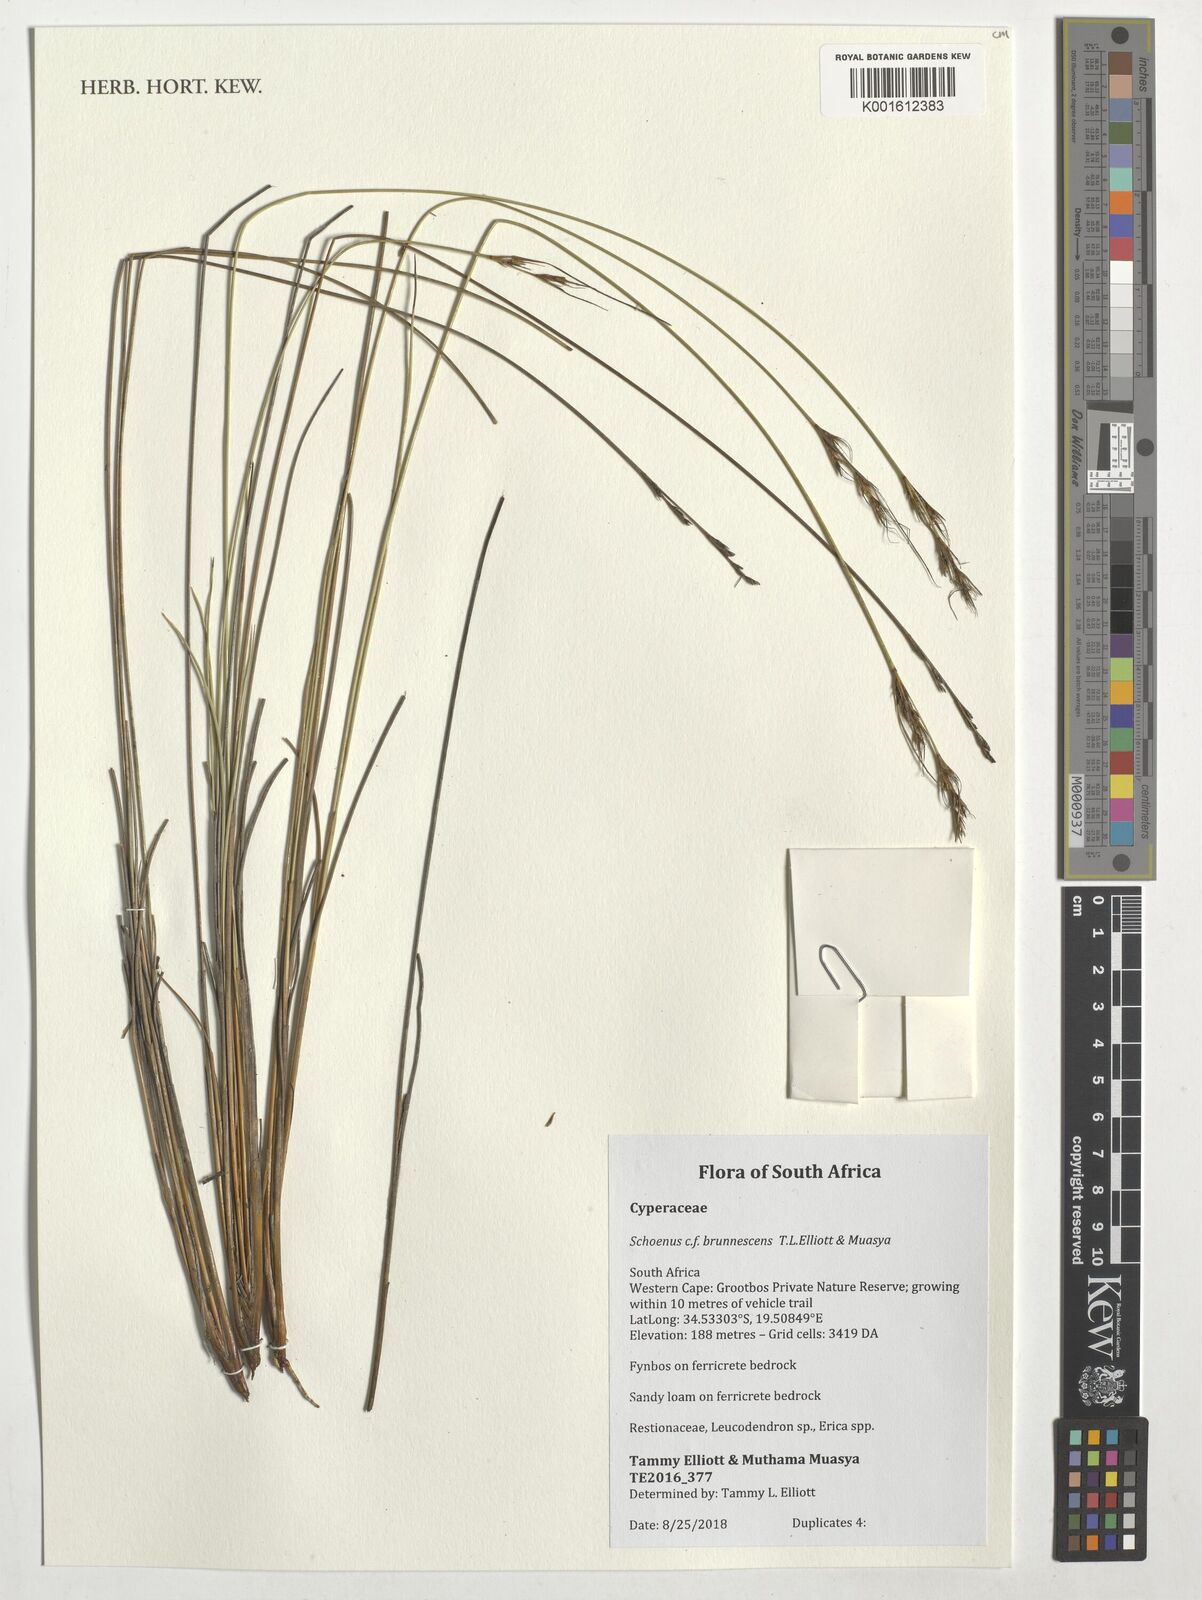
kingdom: Plantae
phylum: Tracheophyta
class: Liliopsida
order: Poales
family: Cyperaceae
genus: Blysmus
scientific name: Blysmus rufus
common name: Saltmarsh flat-sedge
